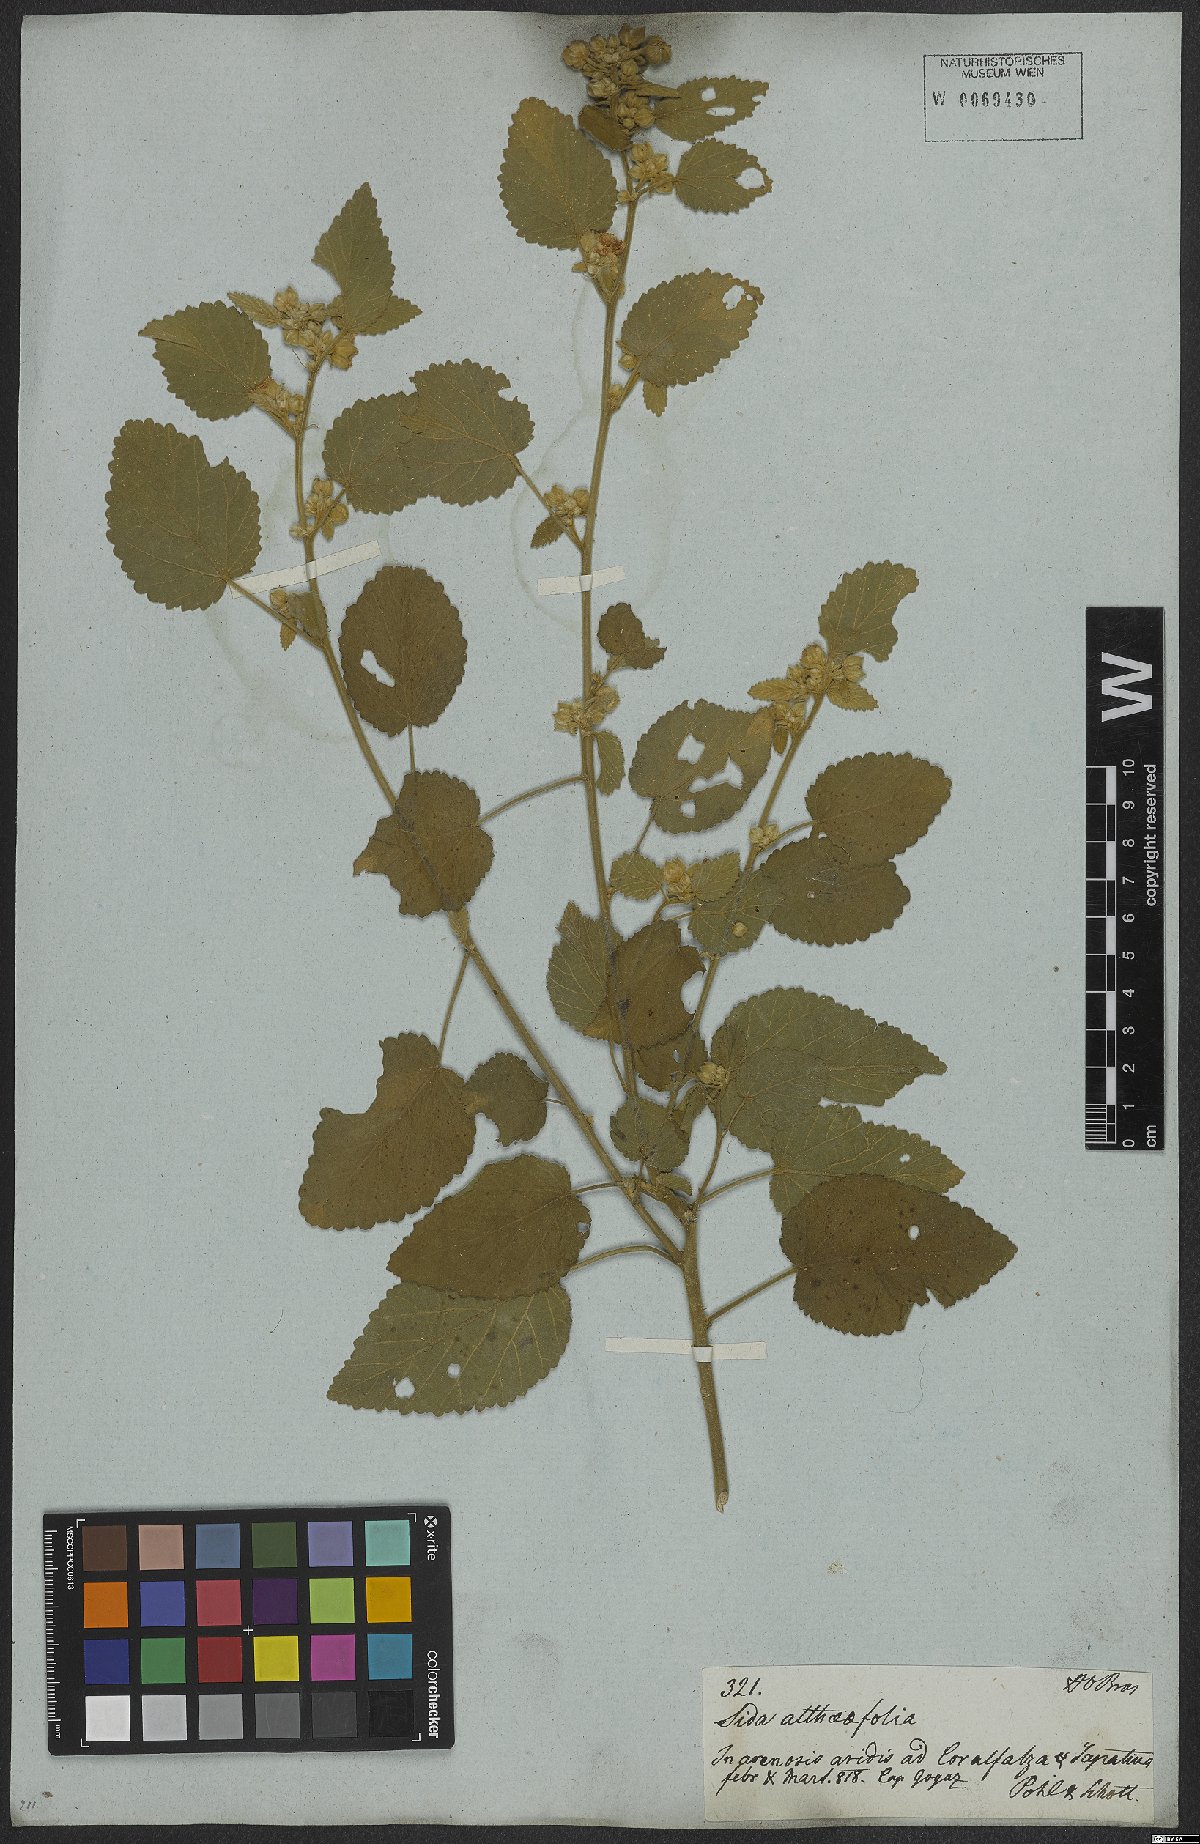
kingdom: Plantae
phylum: Tracheophyta
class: Magnoliopsida
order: Malvales
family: Malvaceae
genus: Sida
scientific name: Sida cordifolia
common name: Ilima
